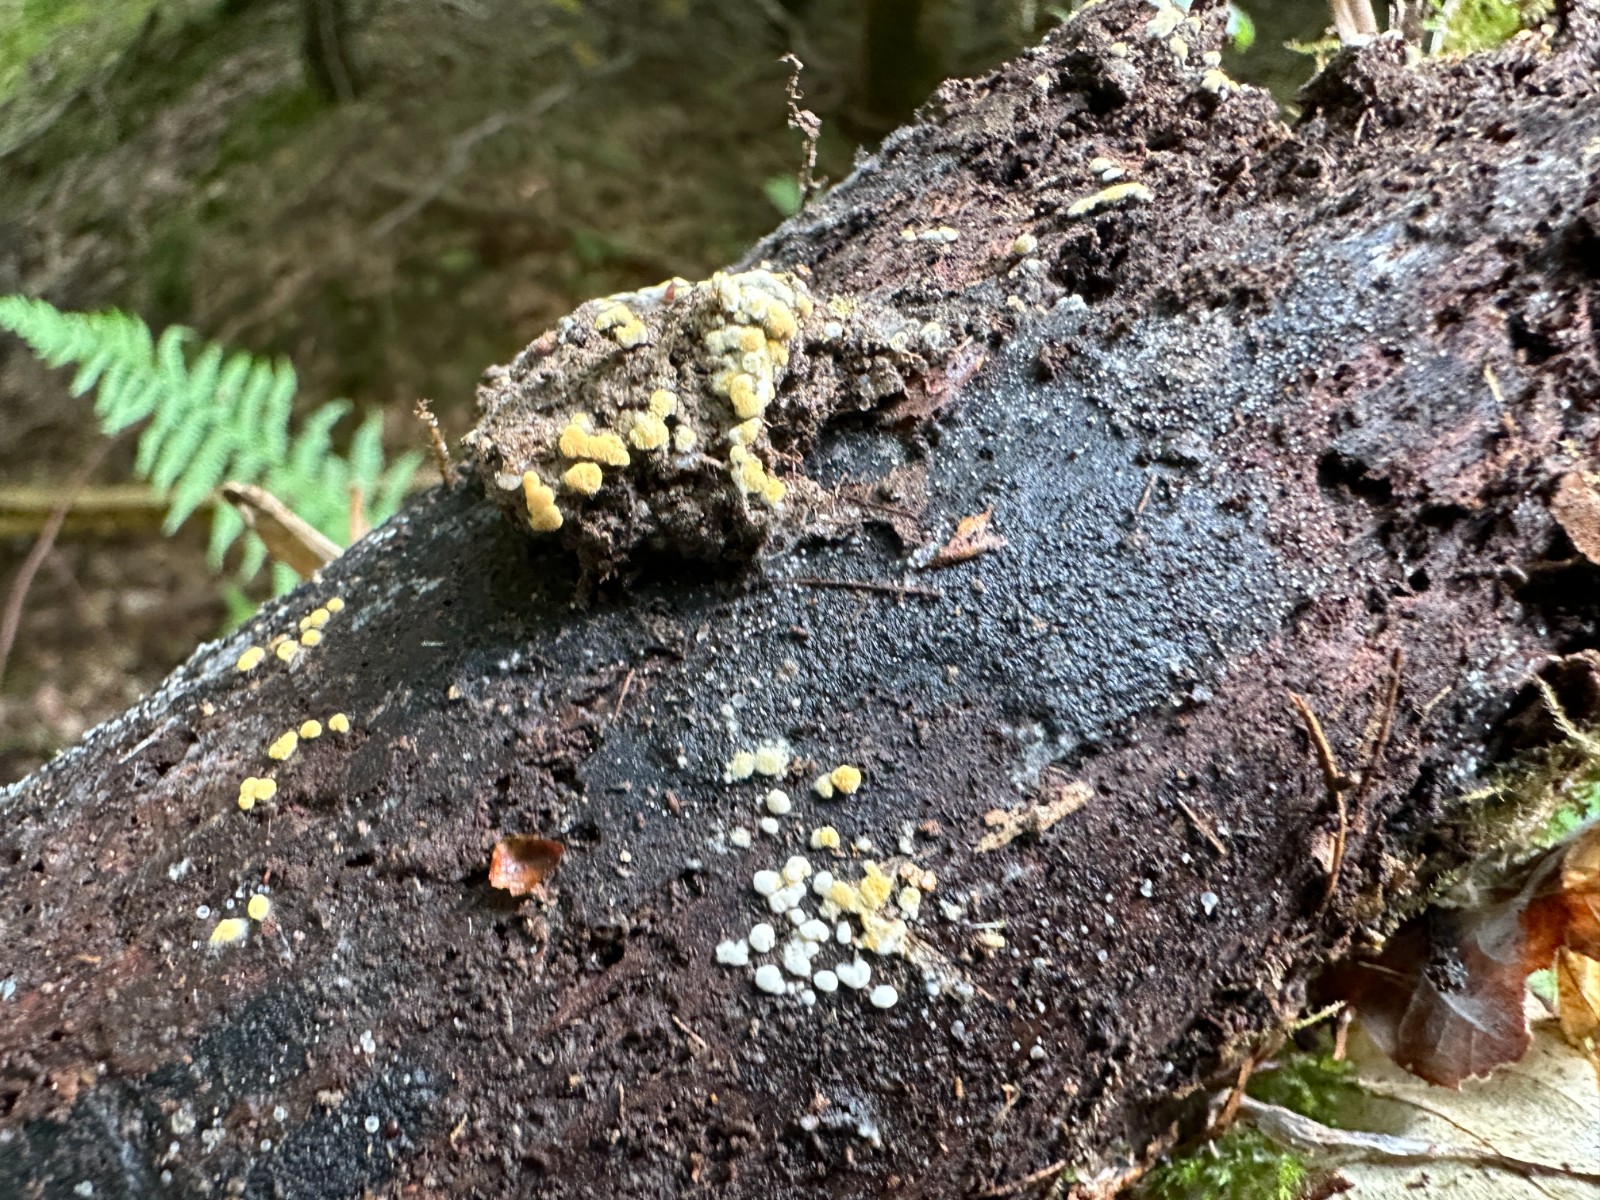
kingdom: Fungi
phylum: Basidiomycota
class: Agaricomycetes
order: Cantharellales
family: Botryobasidiaceae
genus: Botryobasidium
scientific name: Botryobasidium aureum
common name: gylden spindhinde
